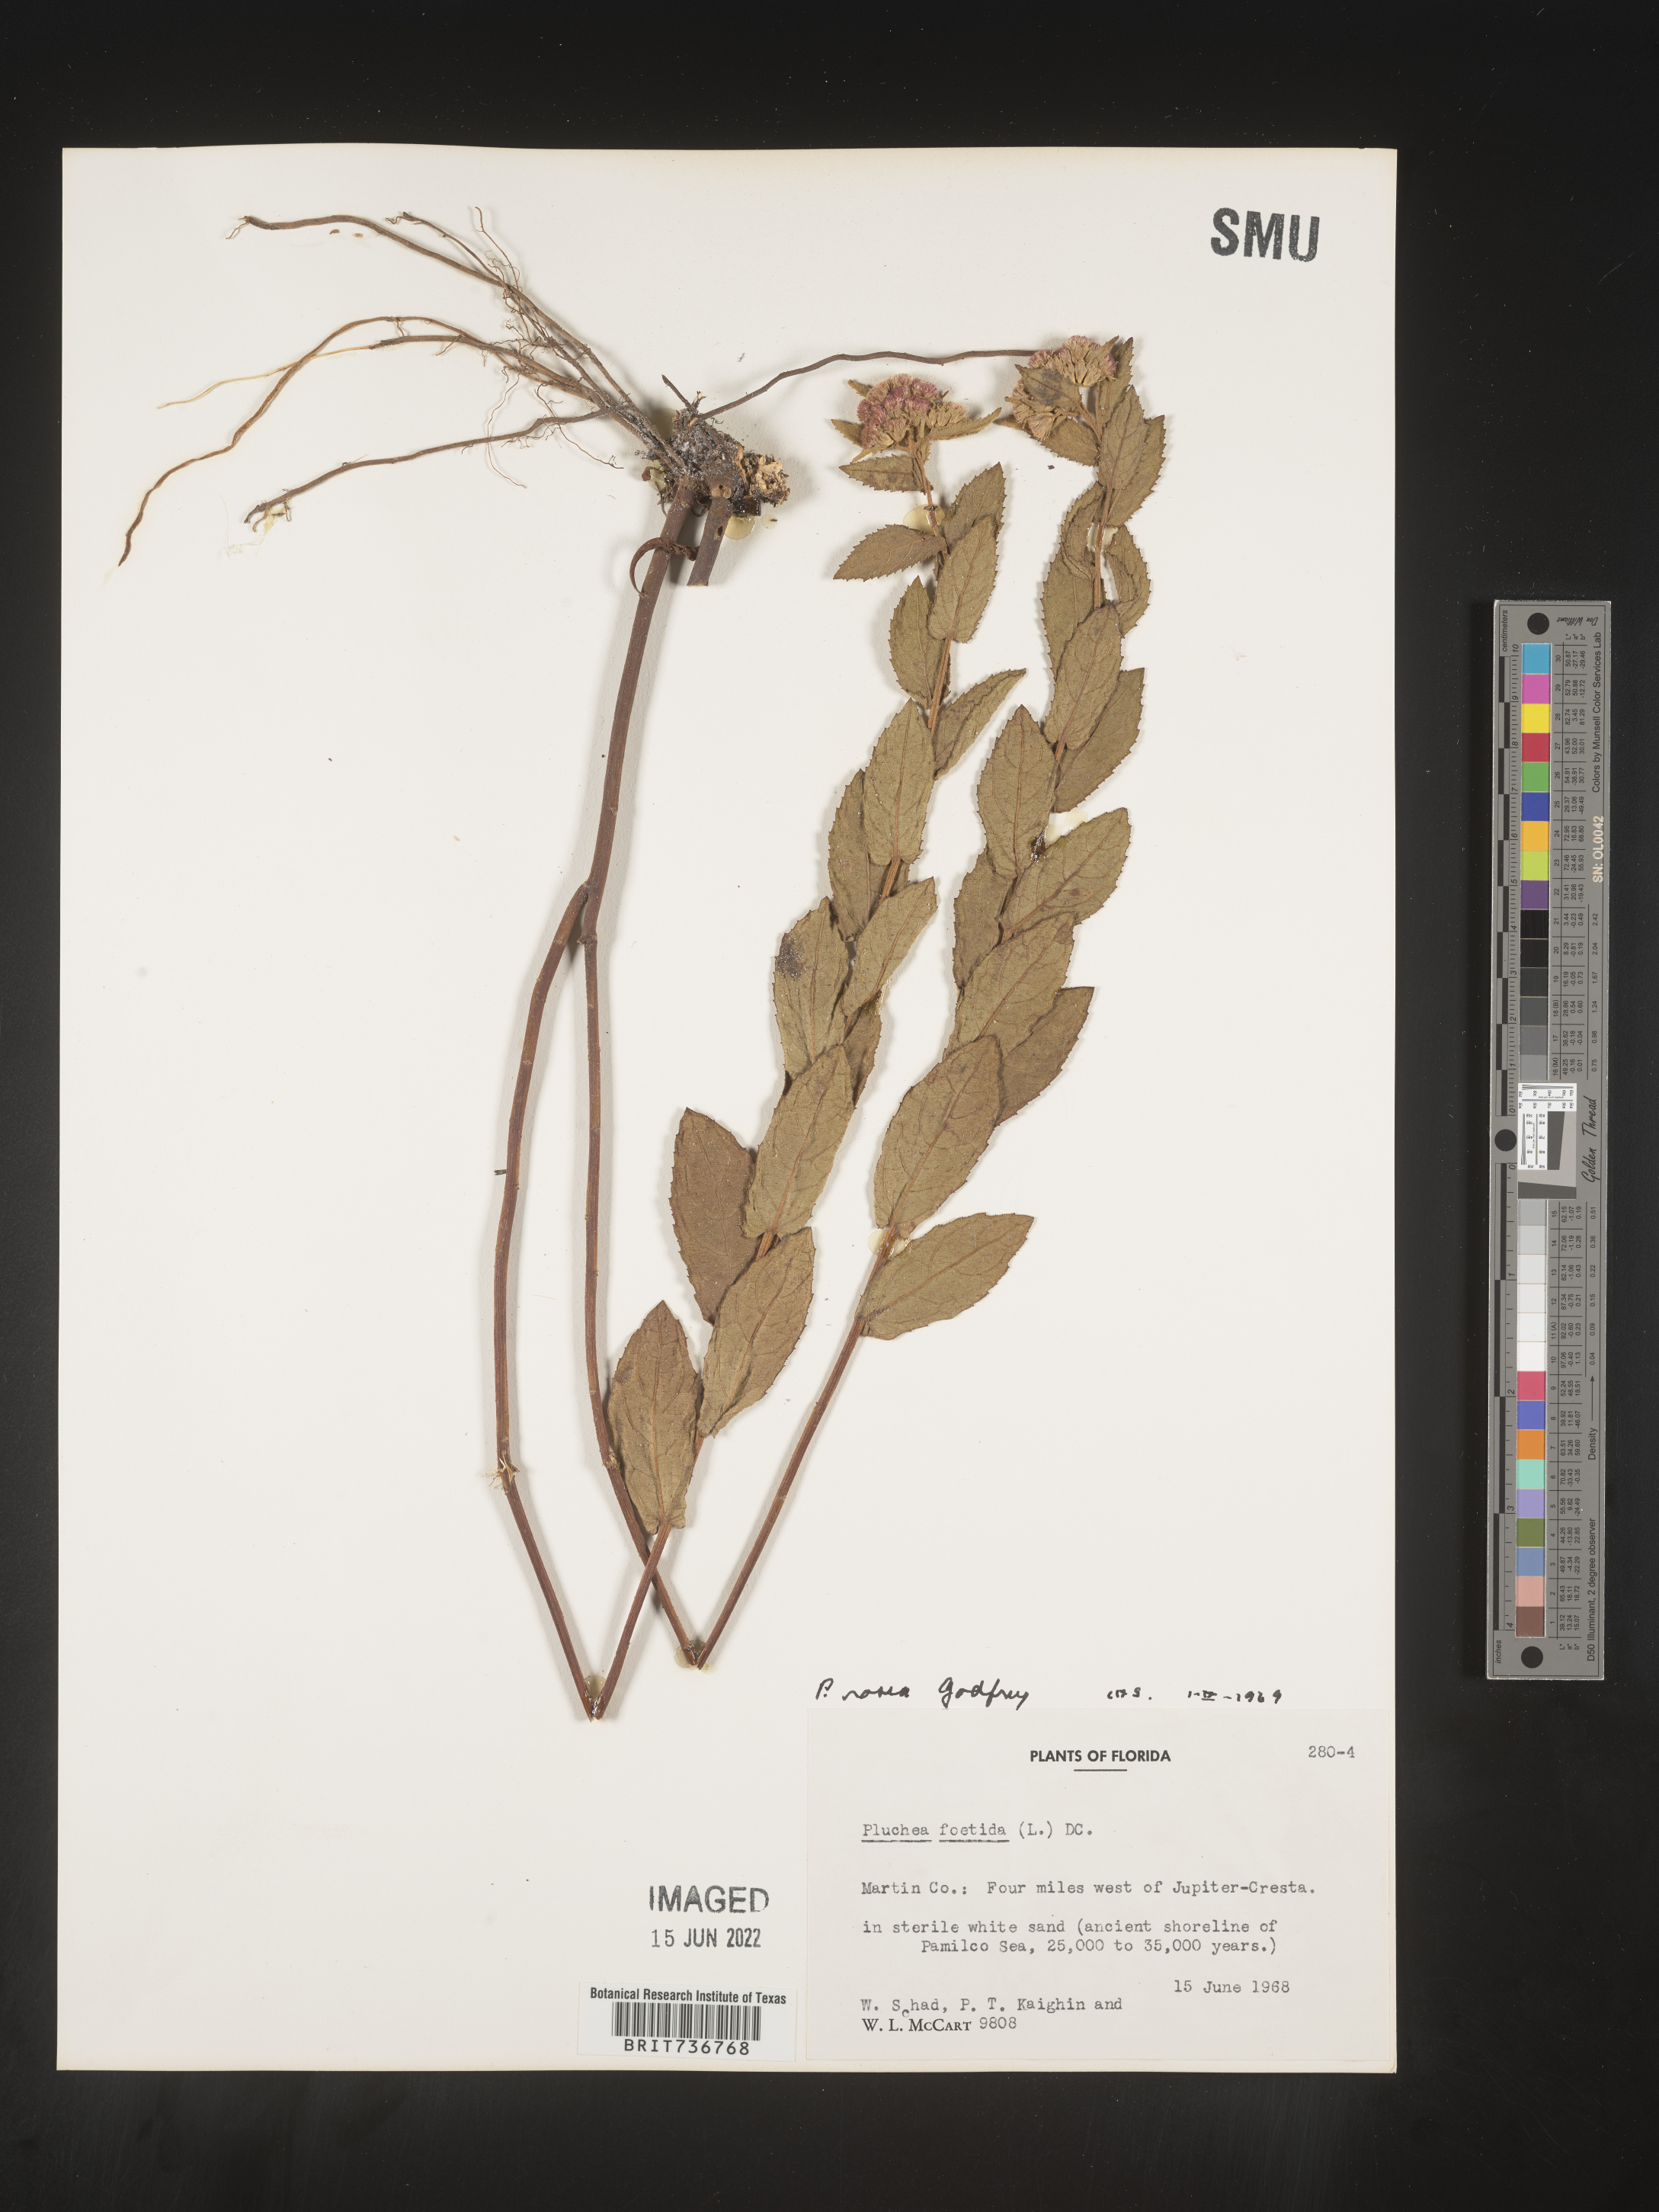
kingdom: Plantae
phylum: Tracheophyta
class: Magnoliopsida
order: Asterales
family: Asteraceae
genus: Pluchea
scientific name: Pluchea baccharis
